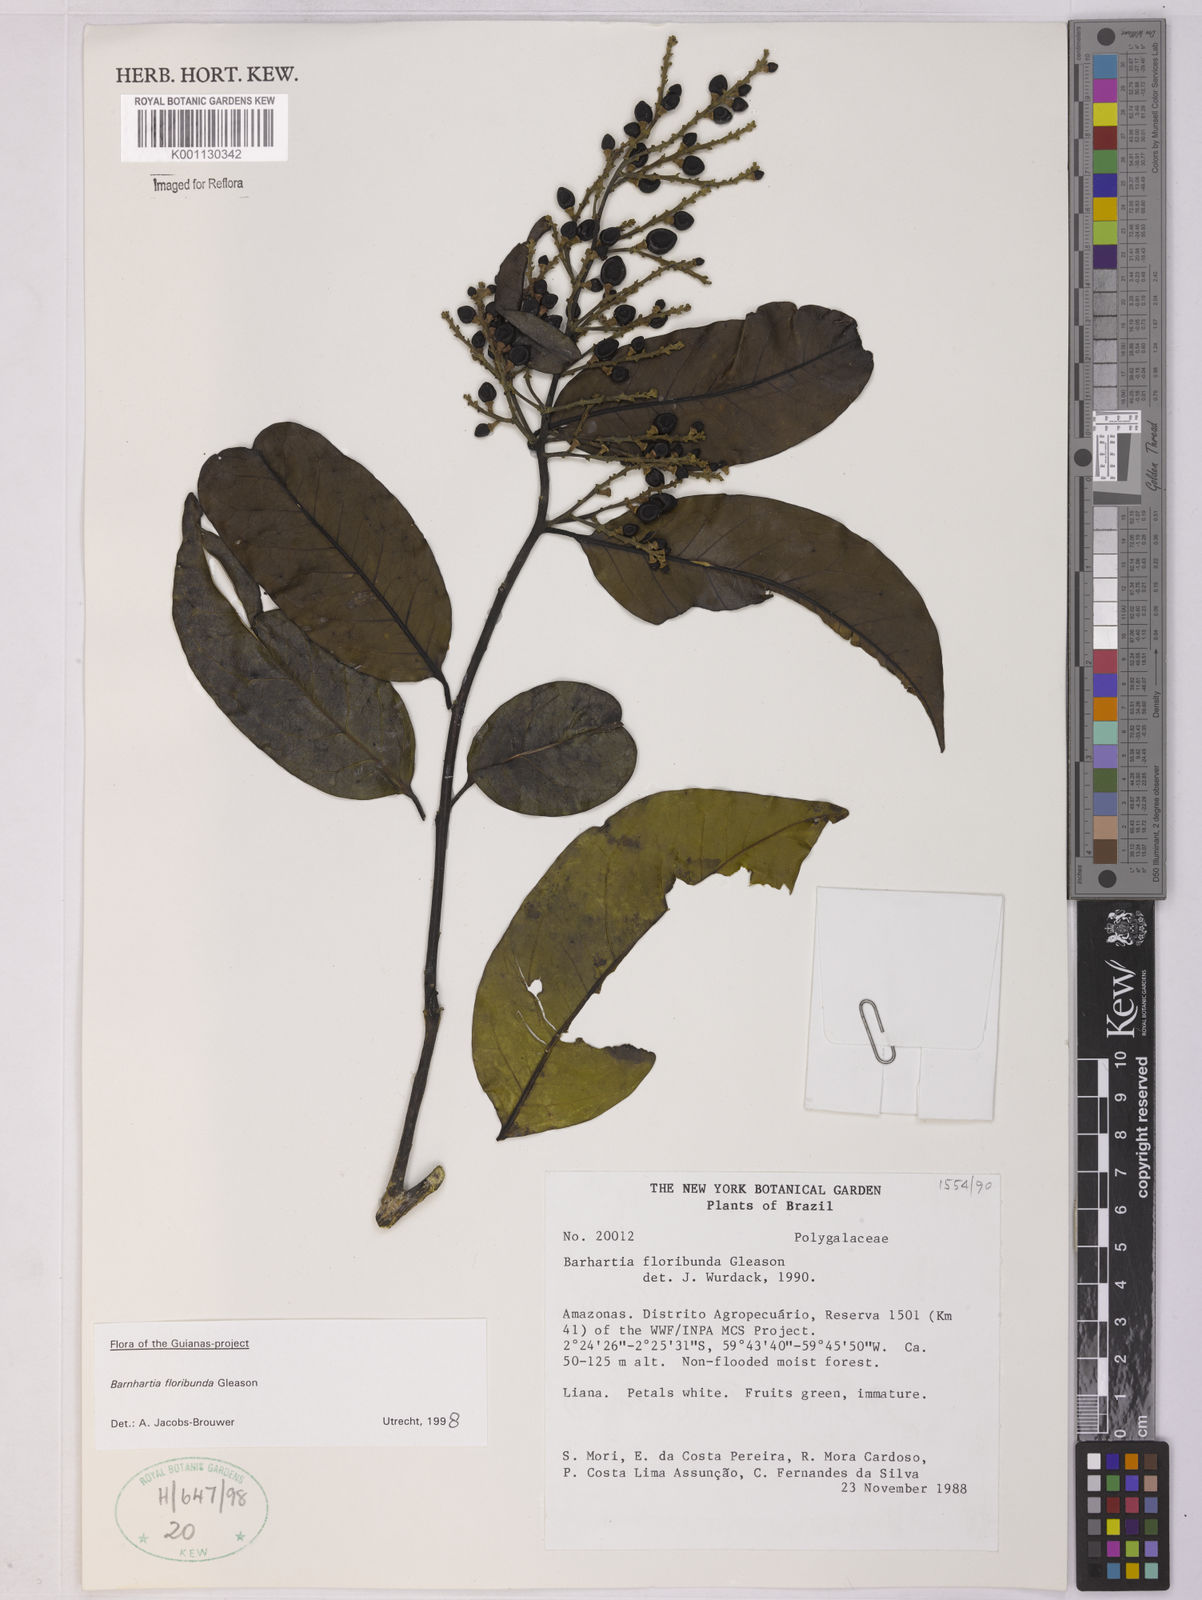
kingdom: Plantae
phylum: Tracheophyta
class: Magnoliopsida
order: Fabales
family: Polygalaceae
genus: Barnhartia
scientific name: Barnhartia floribunda
